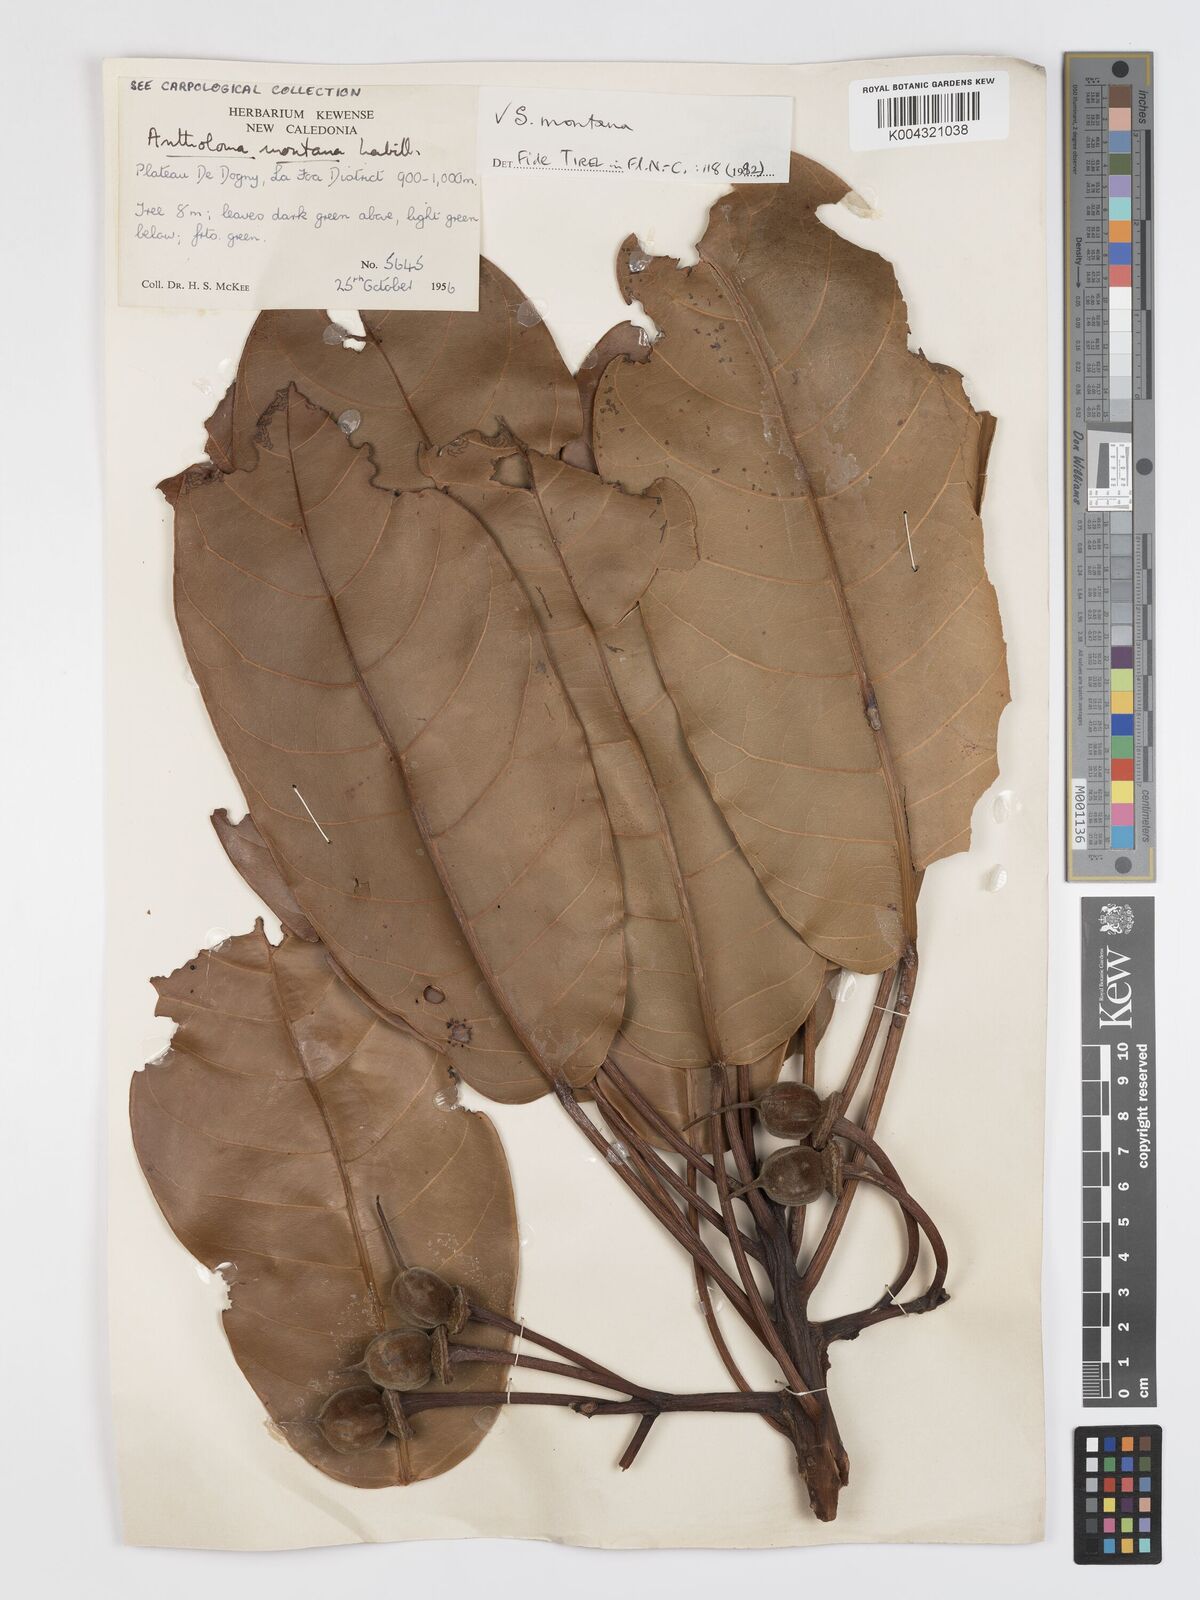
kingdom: Plantae
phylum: Tracheophyta
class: Magnoliopsida
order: Oxalidales
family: Elaeocarpaceae
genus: Sloanea
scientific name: Sloanea montana
